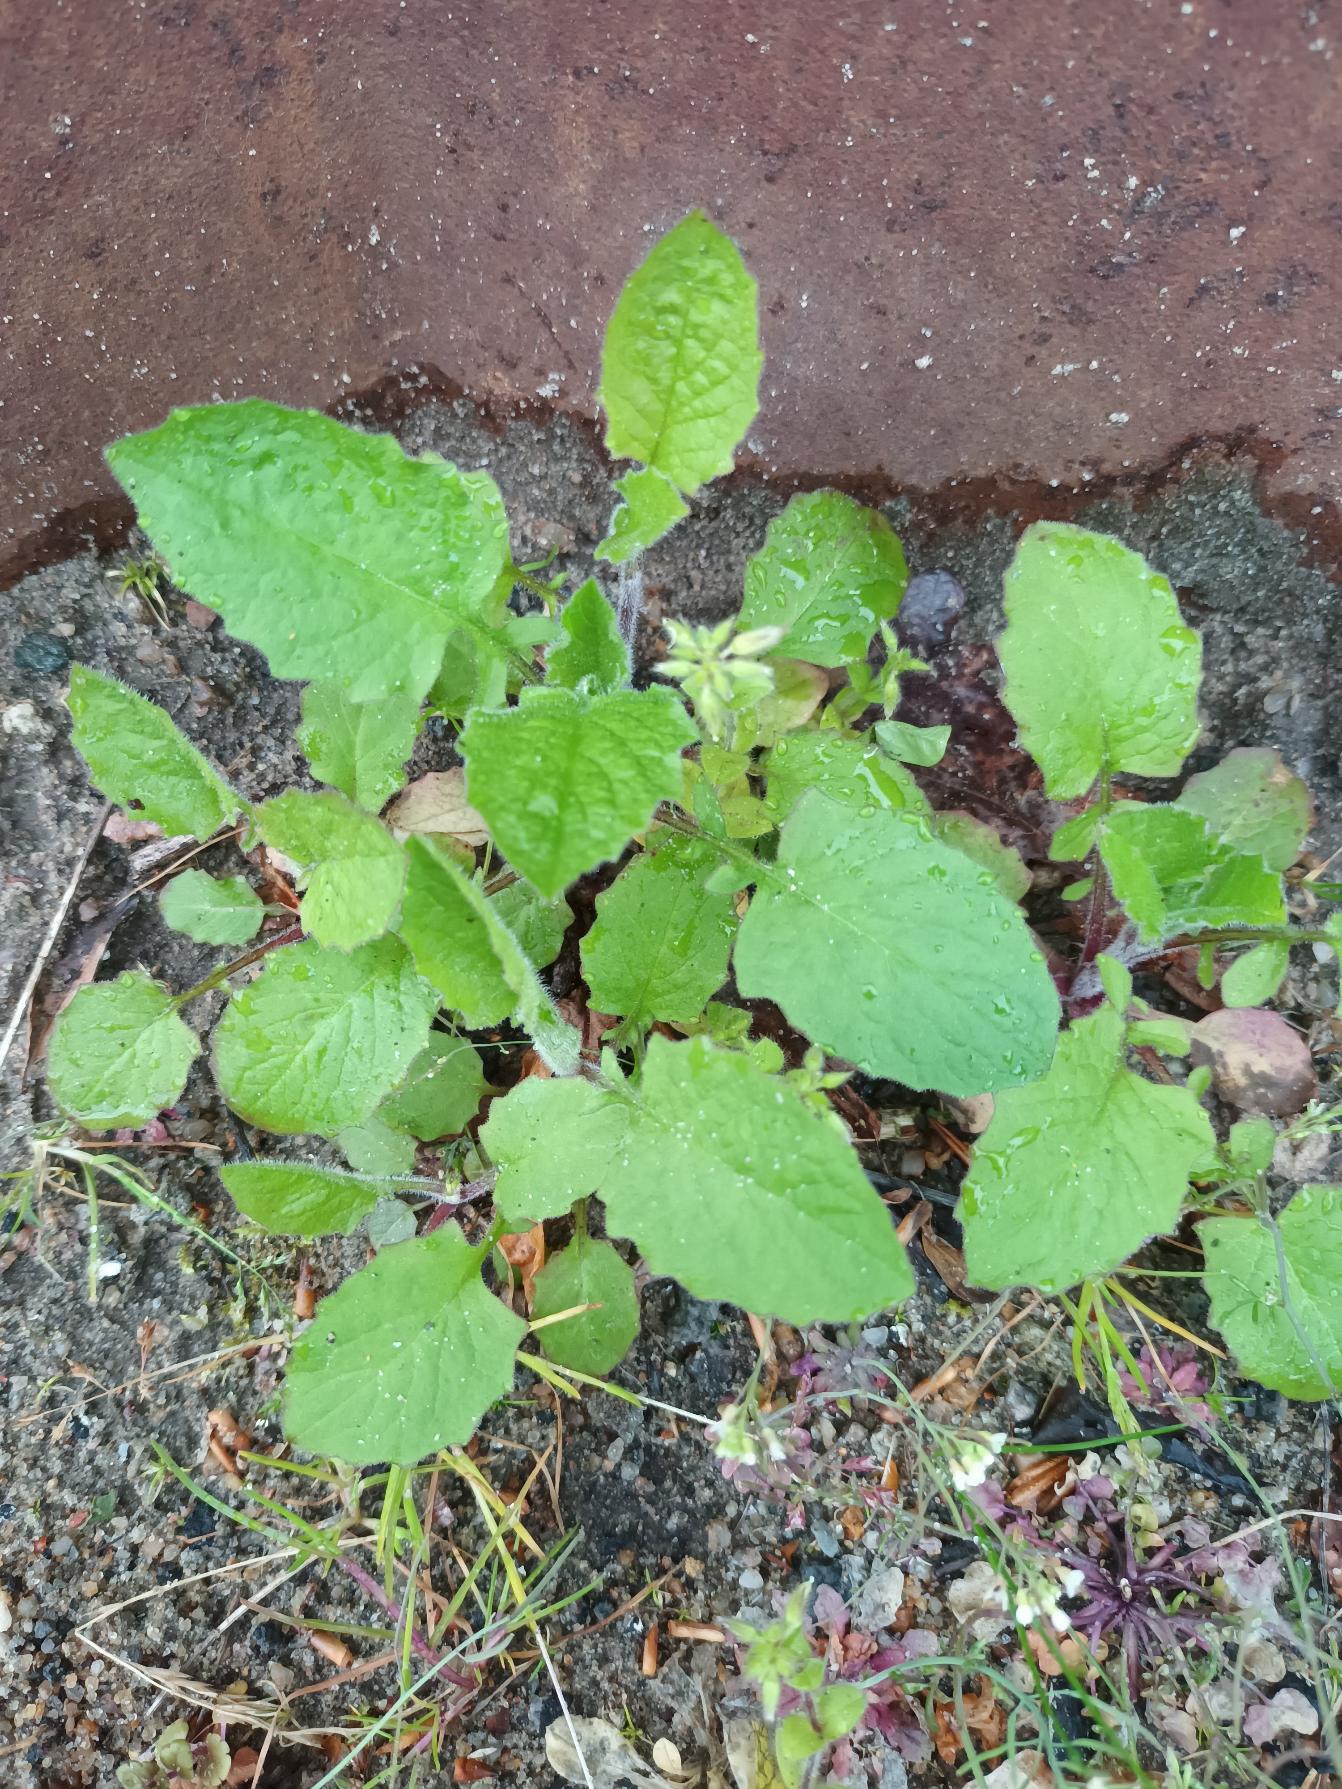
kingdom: Plantae
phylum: Tracheophyta
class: Magnoliopsida
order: Asterales
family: Asteraceae
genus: Lapsana
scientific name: Lapsana communis
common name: Haremad
